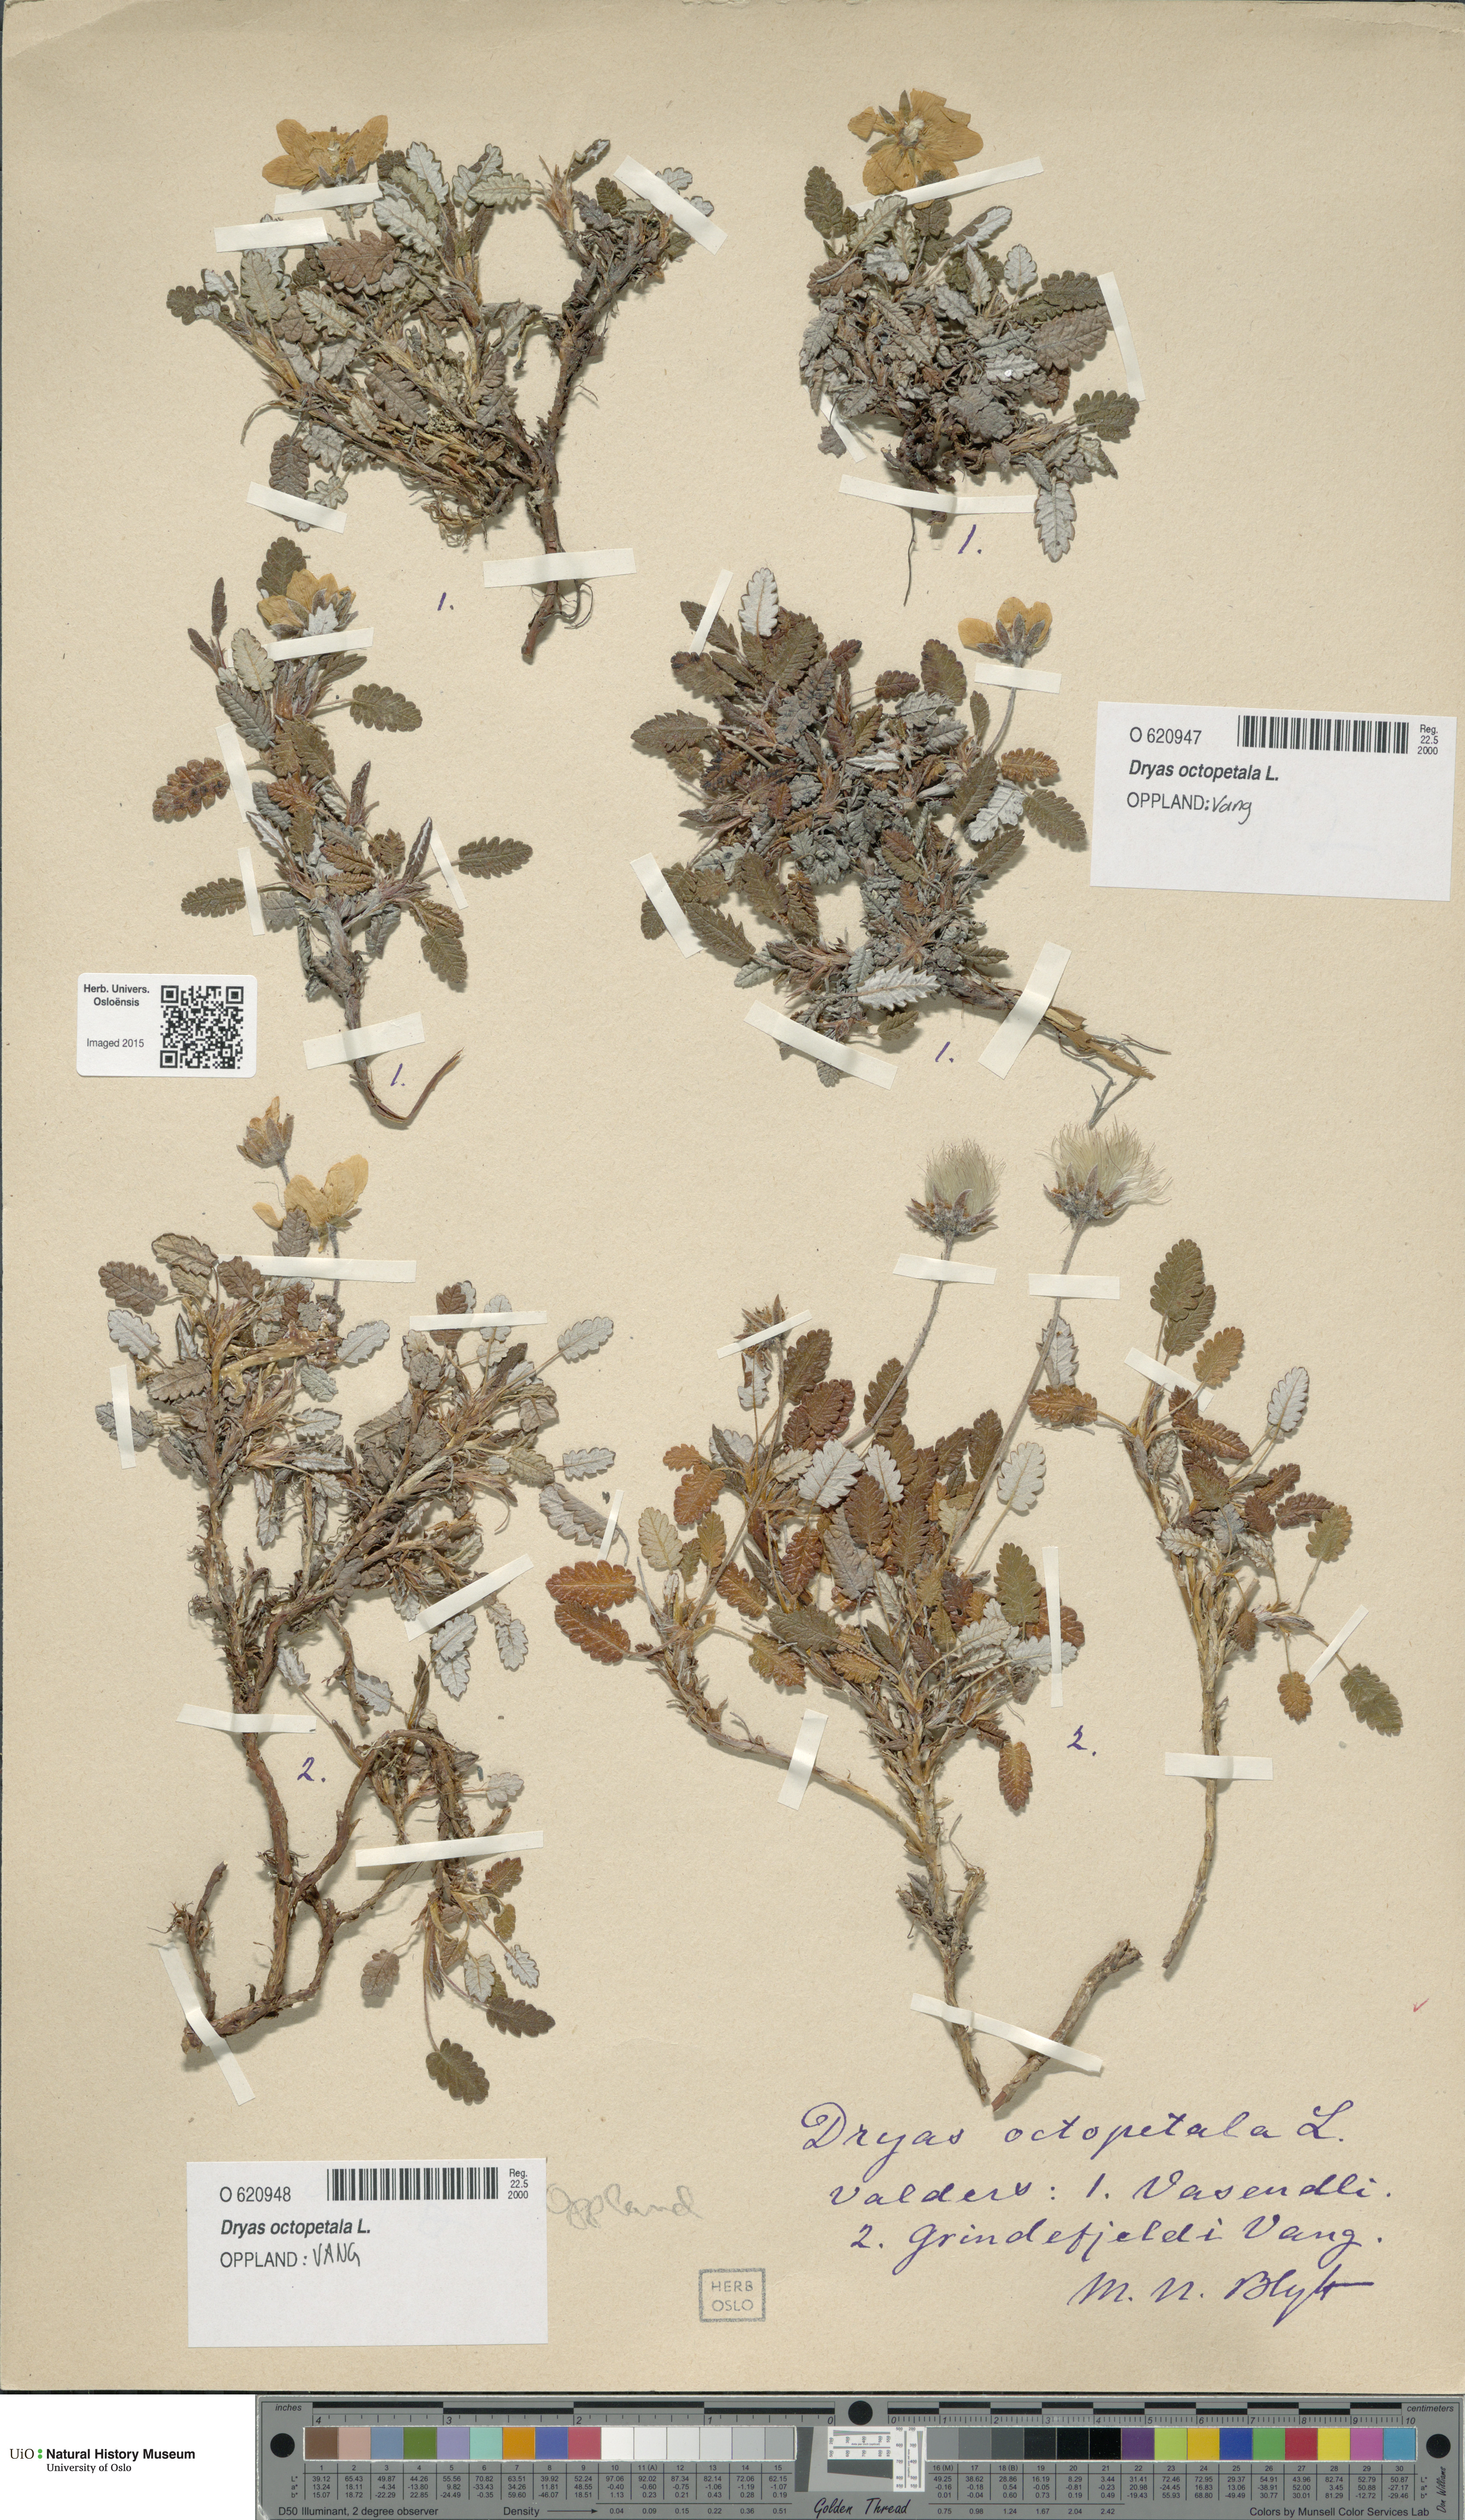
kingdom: Plantae
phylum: Tracheophyta
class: Magnoliopsida
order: Rosales
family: Rosaceae
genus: Dryas
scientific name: Dryas octopetala
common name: Eight-petal mountain-avens
